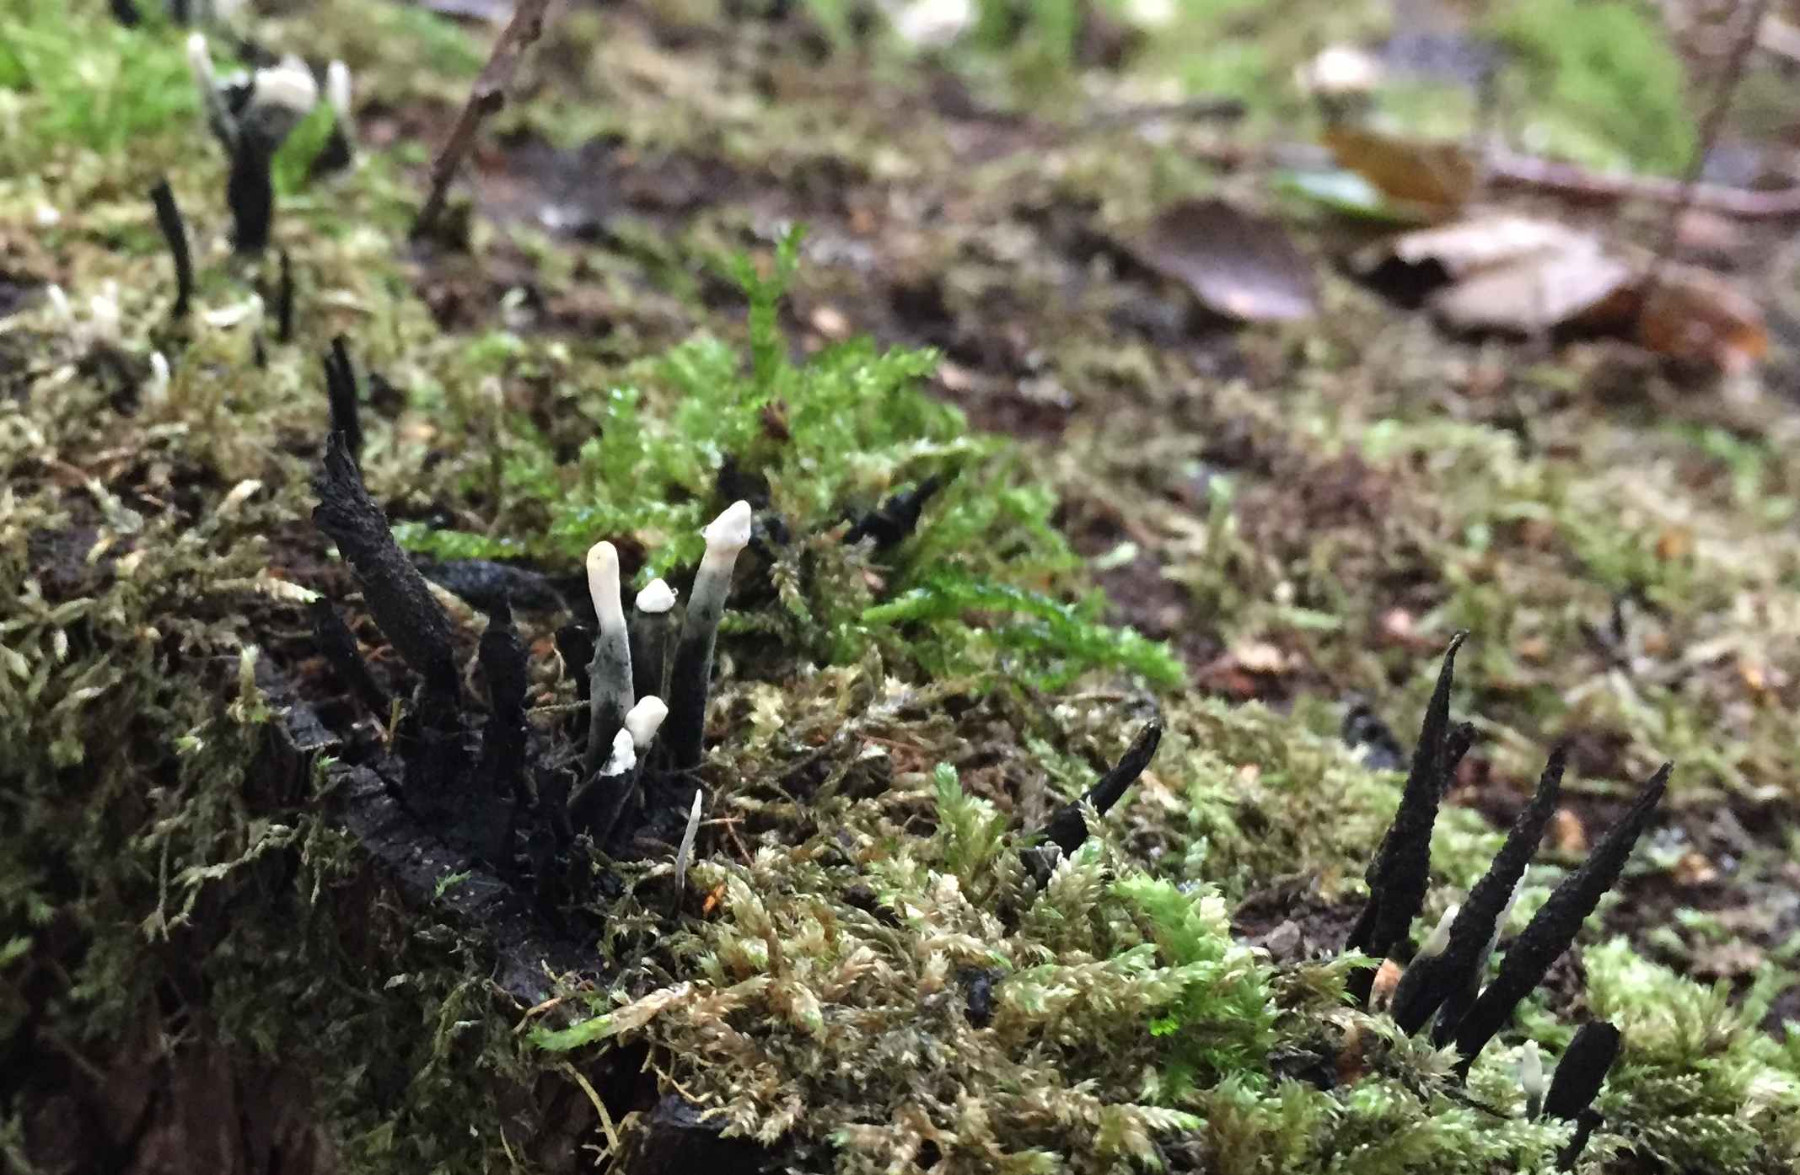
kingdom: Fungi
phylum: Ascomycota
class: Sordariomycetes
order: Xylariales
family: Xylariaceae
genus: Xylaria
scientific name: Xylaria hypoxylon
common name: grenet stødsvamp
